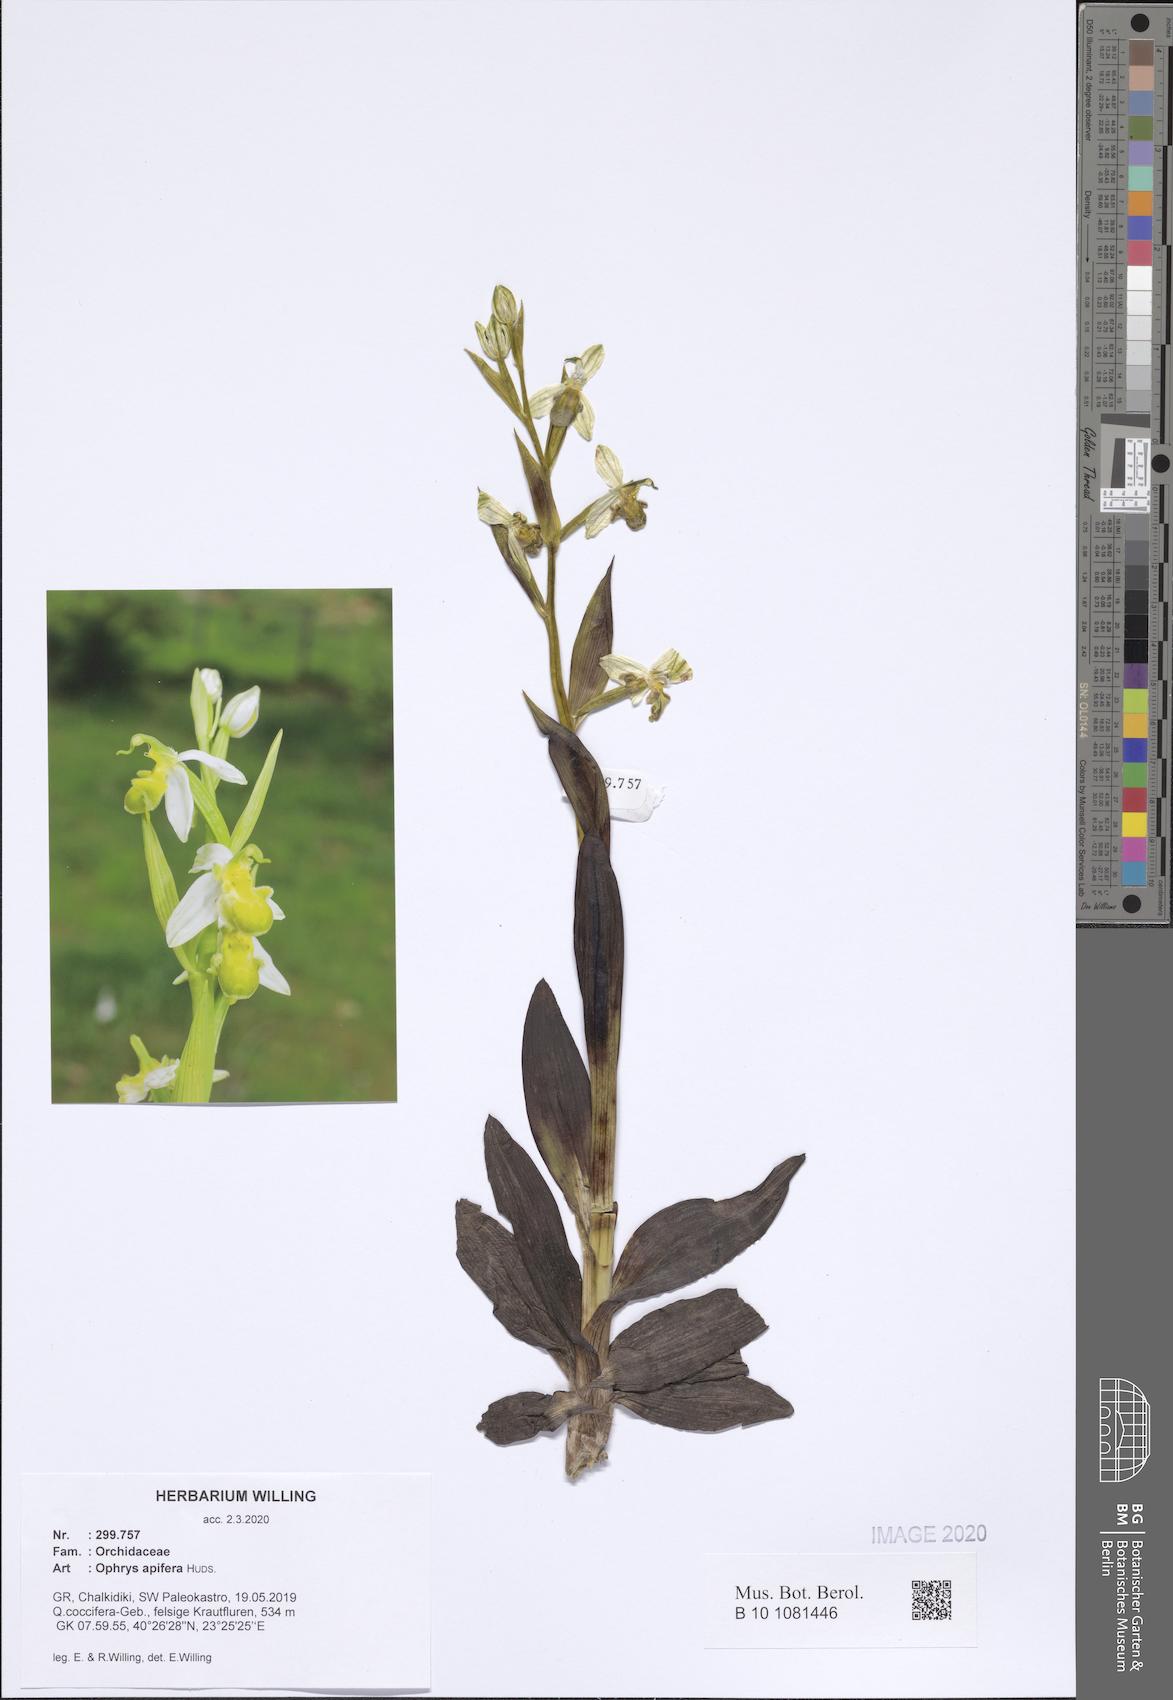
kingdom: Plantae
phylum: Tracheophyta
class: Liliopsida
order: Asparagales
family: Orchidaceae
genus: Ophrys
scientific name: Ophrys apifera
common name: Bee orchid
